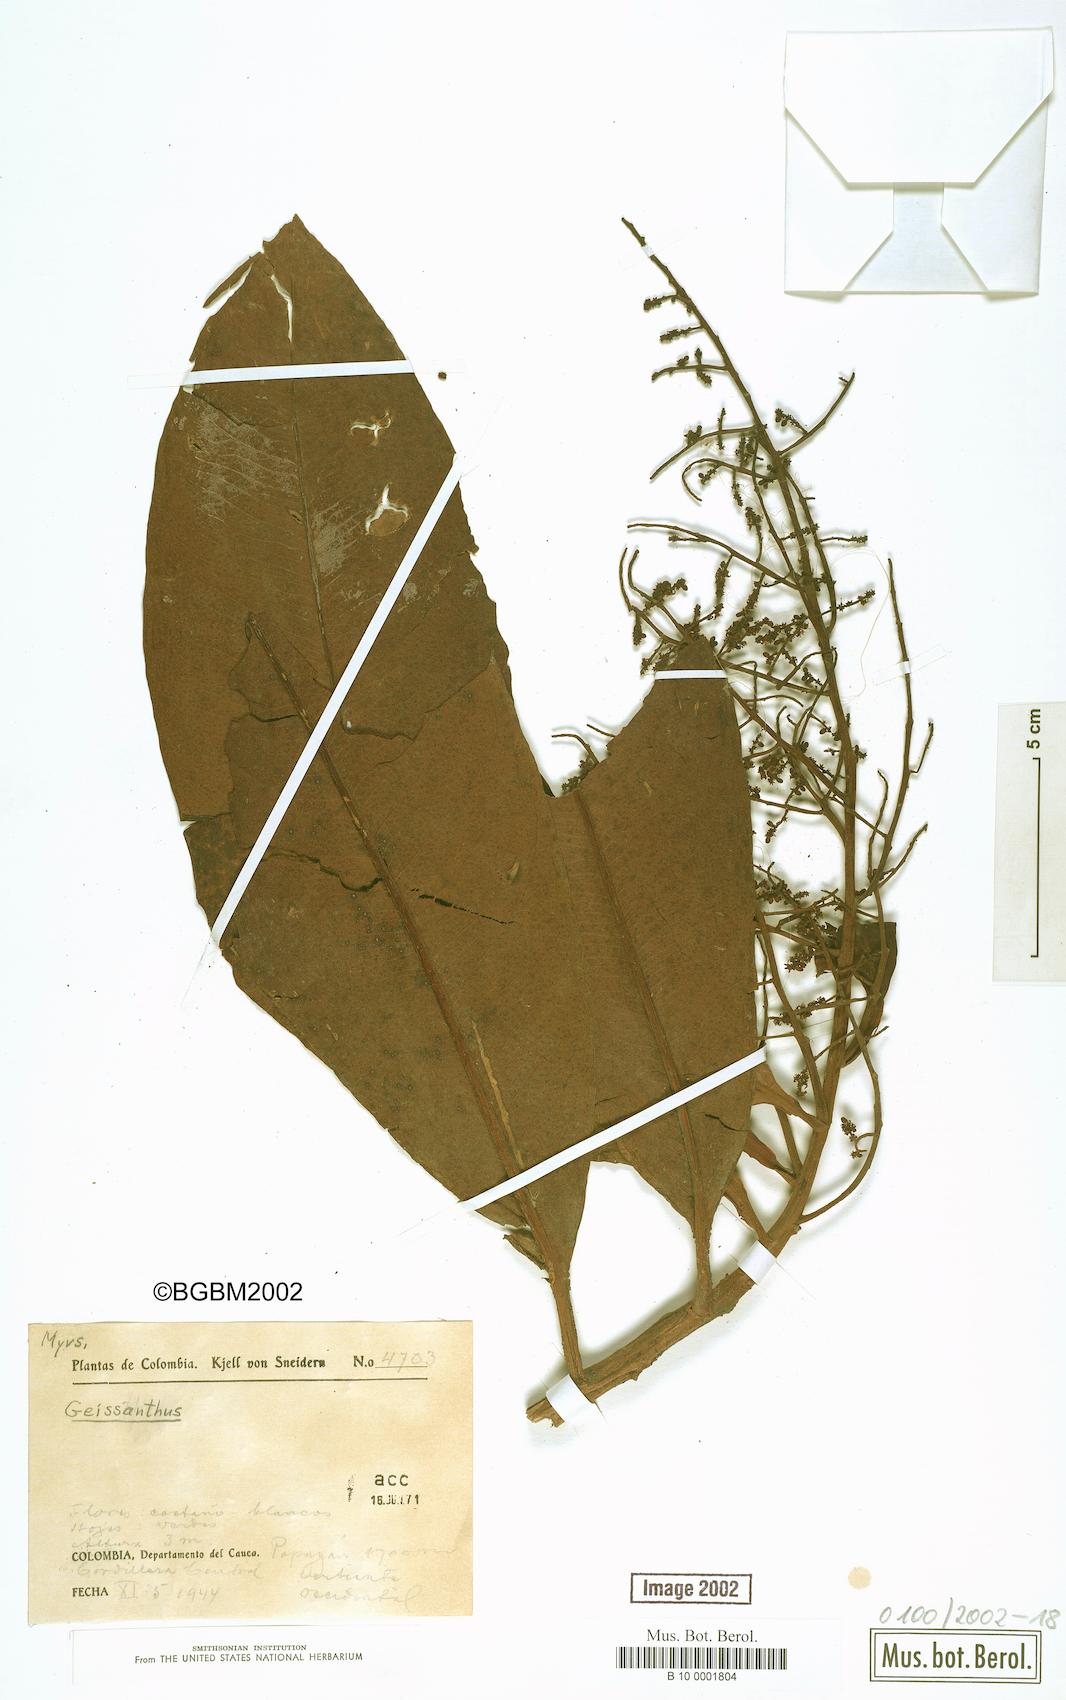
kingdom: Plantae
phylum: Tracheophyta
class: Magnoliopsida
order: Ericales
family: Primulaceae
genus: Geissanthus
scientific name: Geissanthus
